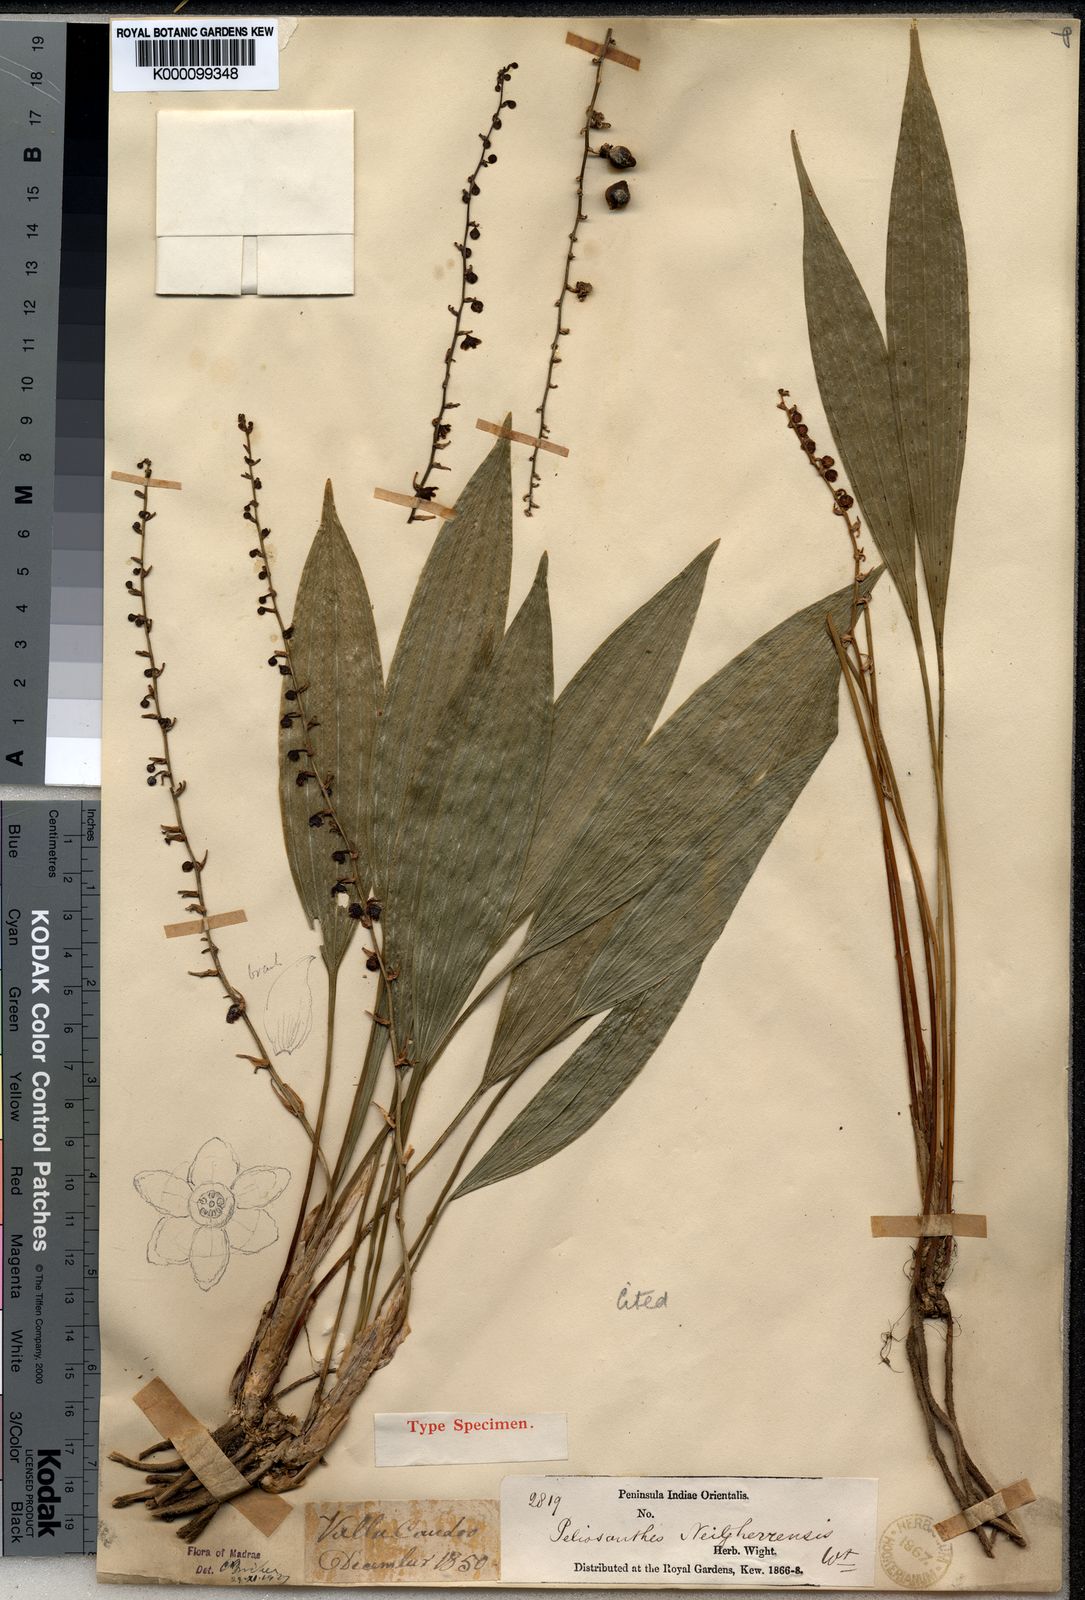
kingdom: Plantae
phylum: Tracheophyta
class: Liliopsida
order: Asparagales
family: Asparagaceae
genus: Peliosanthes
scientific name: Peliosanthes
